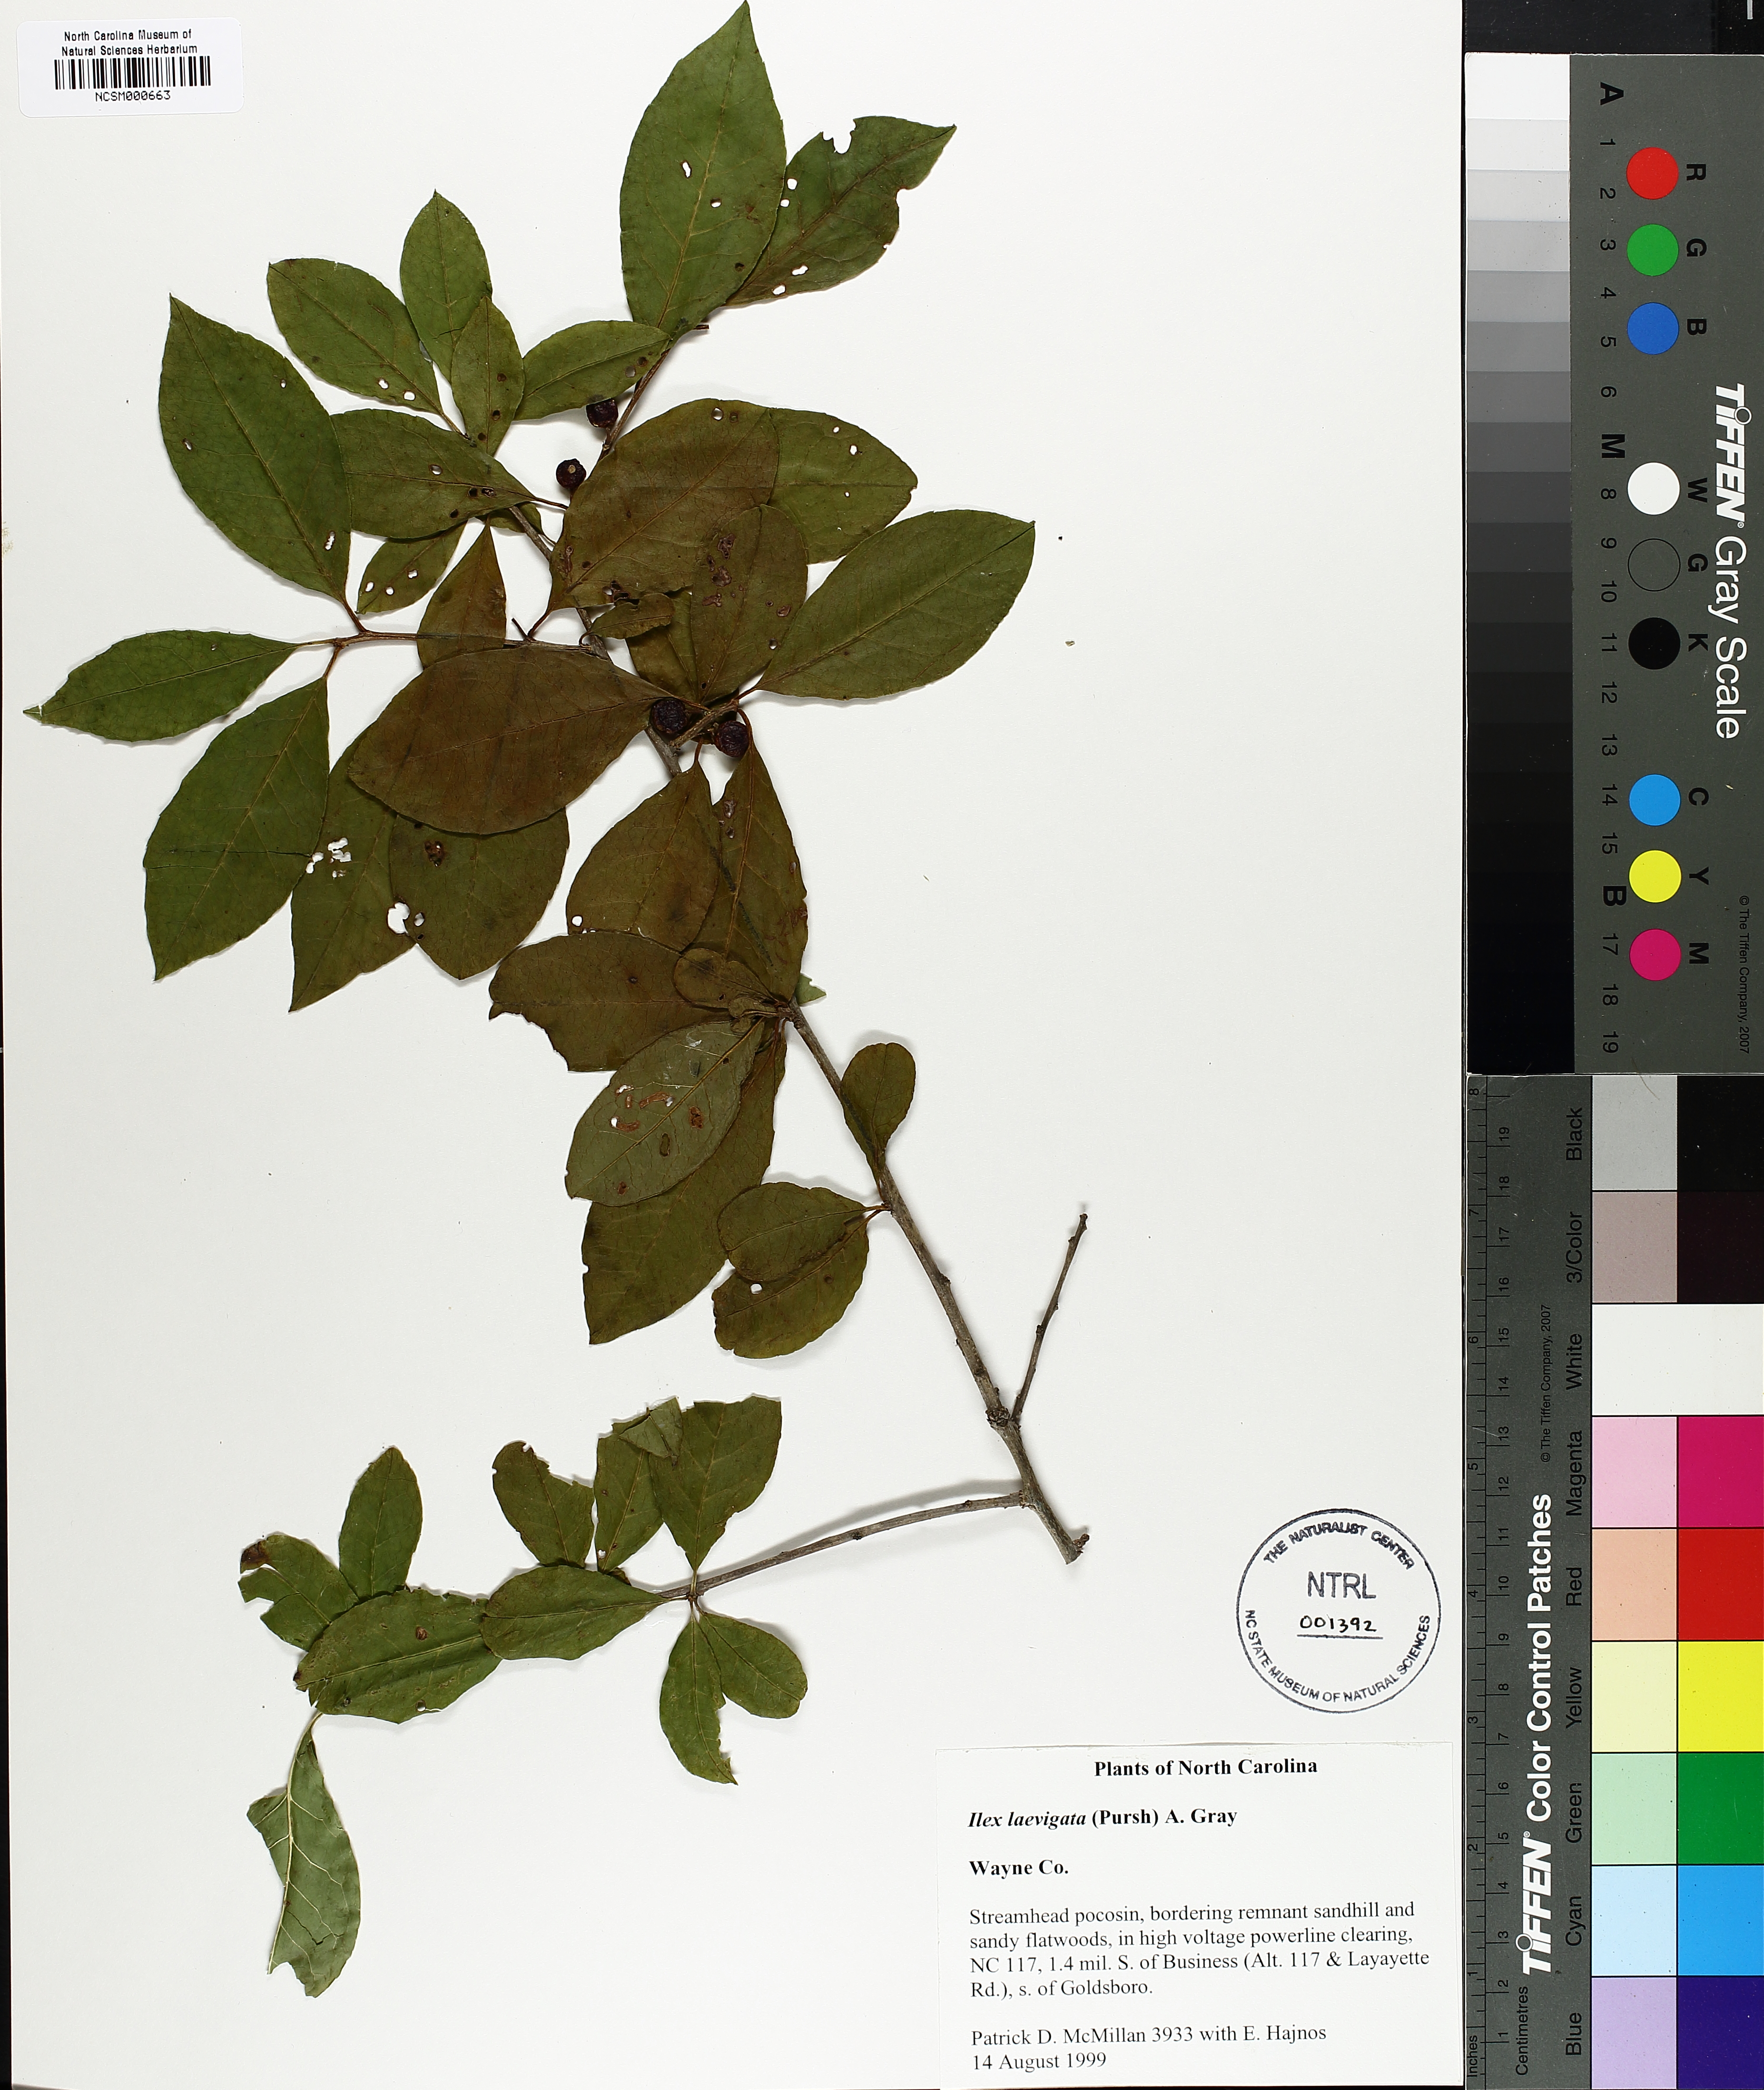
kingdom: Plantae
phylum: Tracheophyta
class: Magnoliopsida
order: Aquifoliales
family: Aquifoliaceae
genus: Ilex
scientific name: Ilex laevigata
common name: Smooth winterberry
